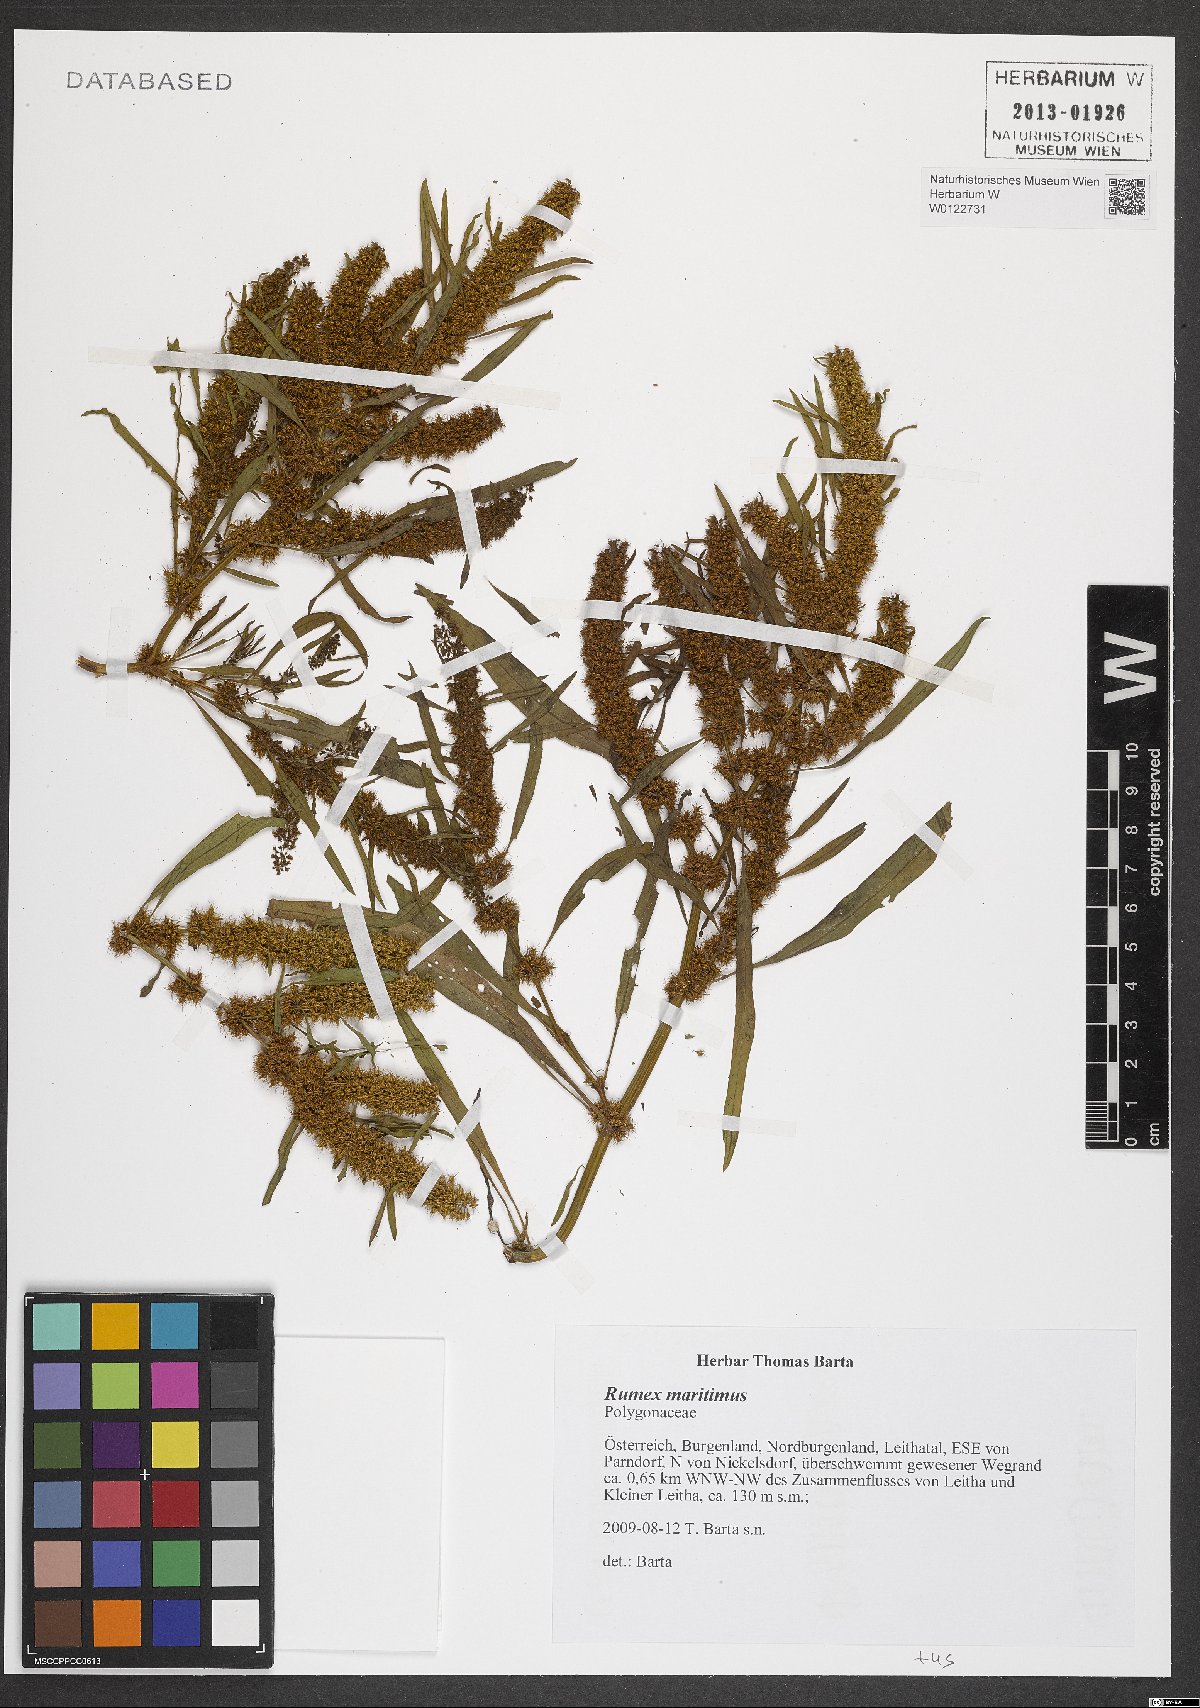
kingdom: Plantae
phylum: Tracheophyta
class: Magnoliopsida
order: Caryophyllales
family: Polygonaceae
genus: Rumex
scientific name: Rumex maritimus
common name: Golden dock
